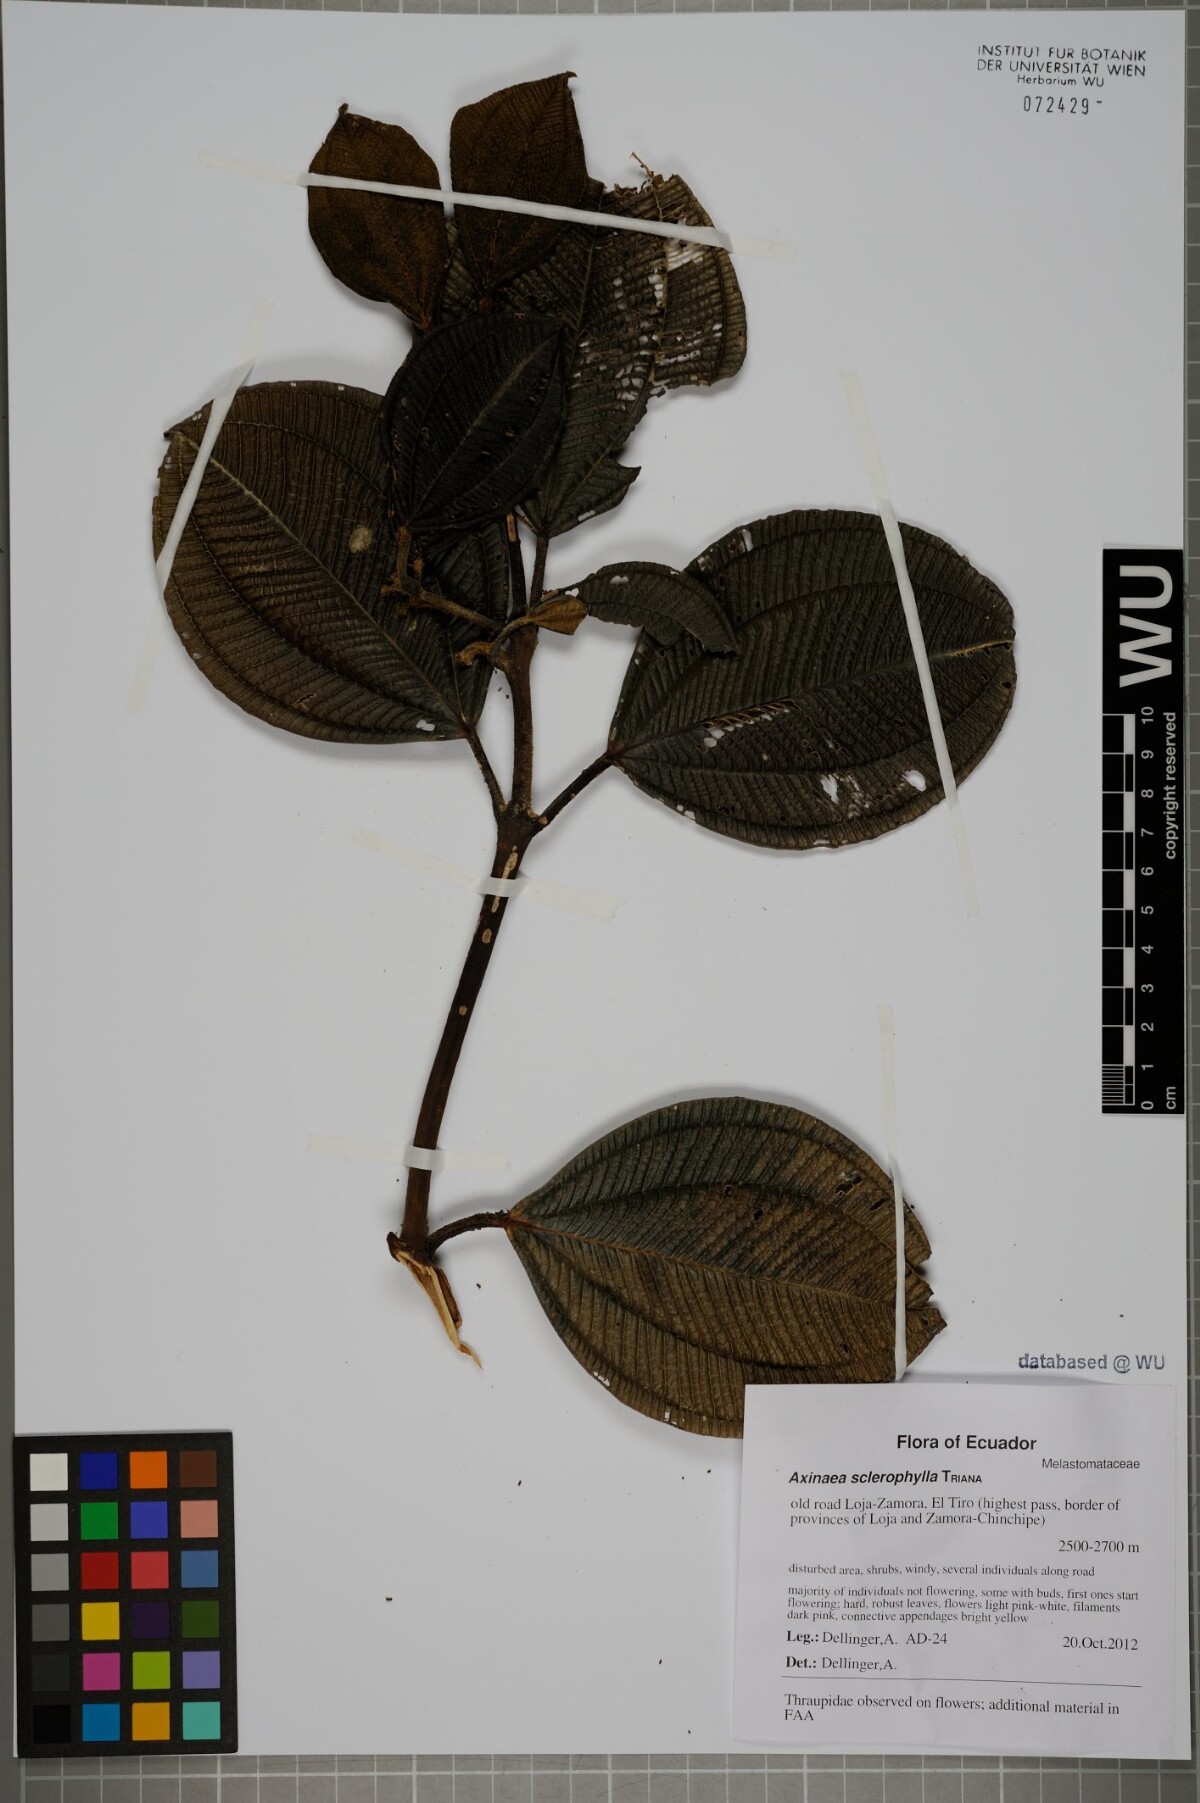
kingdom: Plantae
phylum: Tracheophyta
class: Magnoliopsida
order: Myrtales
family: Melastomataceae
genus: Axinaea
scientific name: Axinaea sclerophylla
